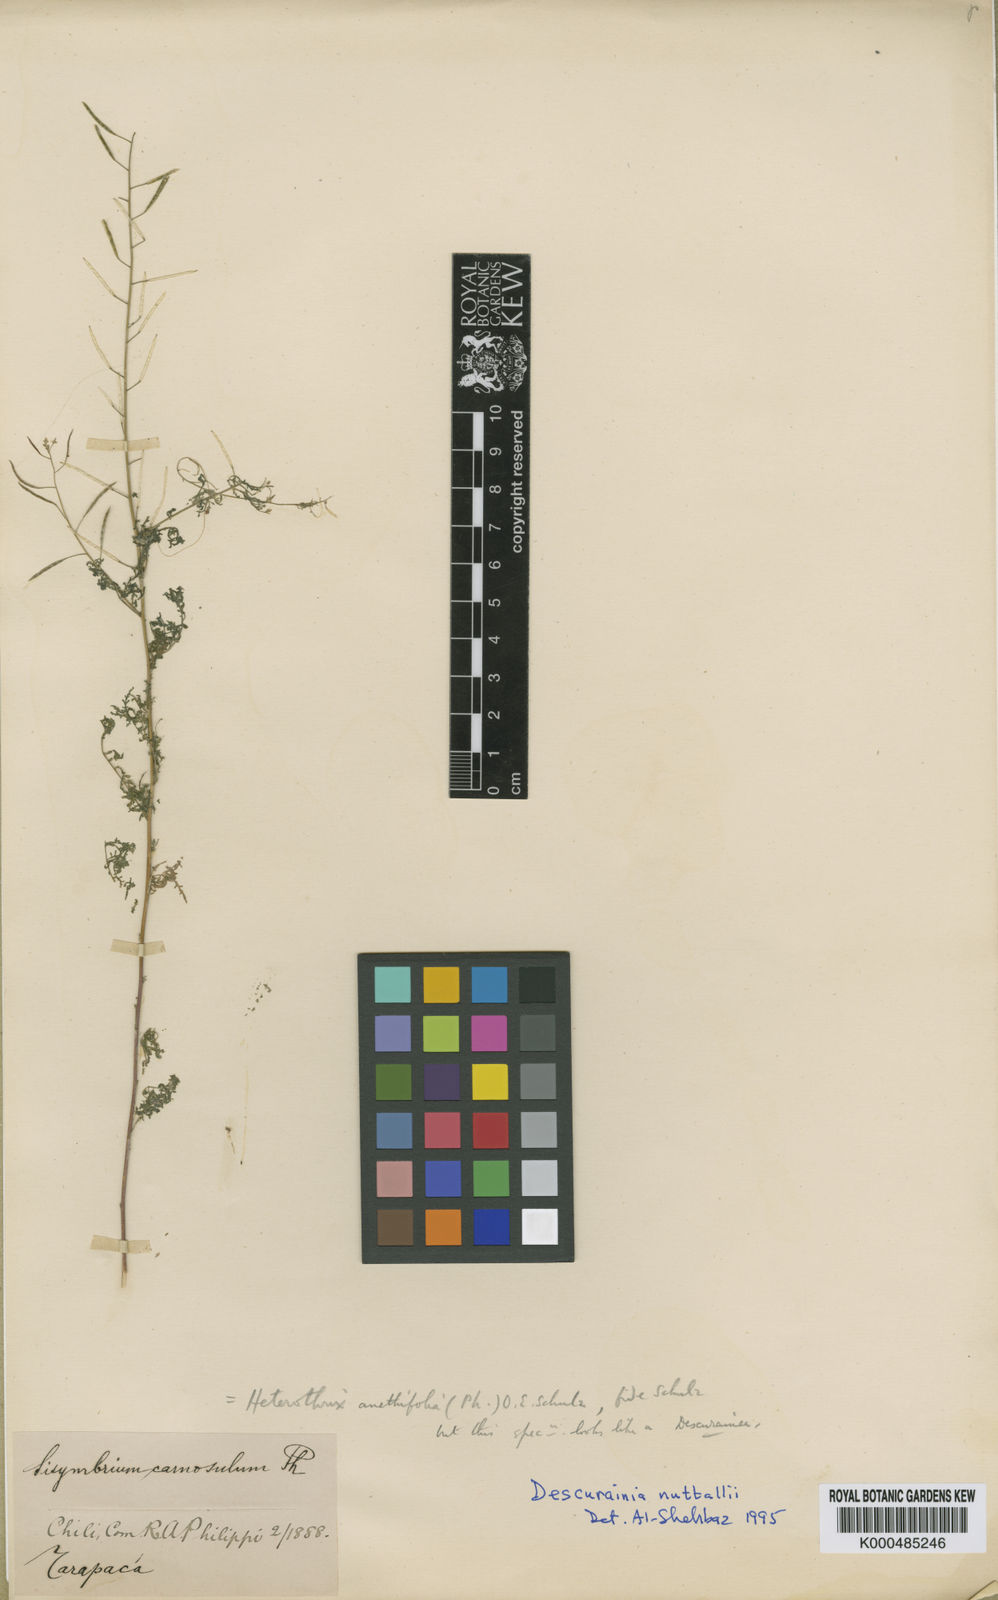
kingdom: Plantae
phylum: Tracheophyta
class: Magnoliopsida
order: Brassicales
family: Brassicaceae
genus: Descurainia
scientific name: Descurainia nuttallii
